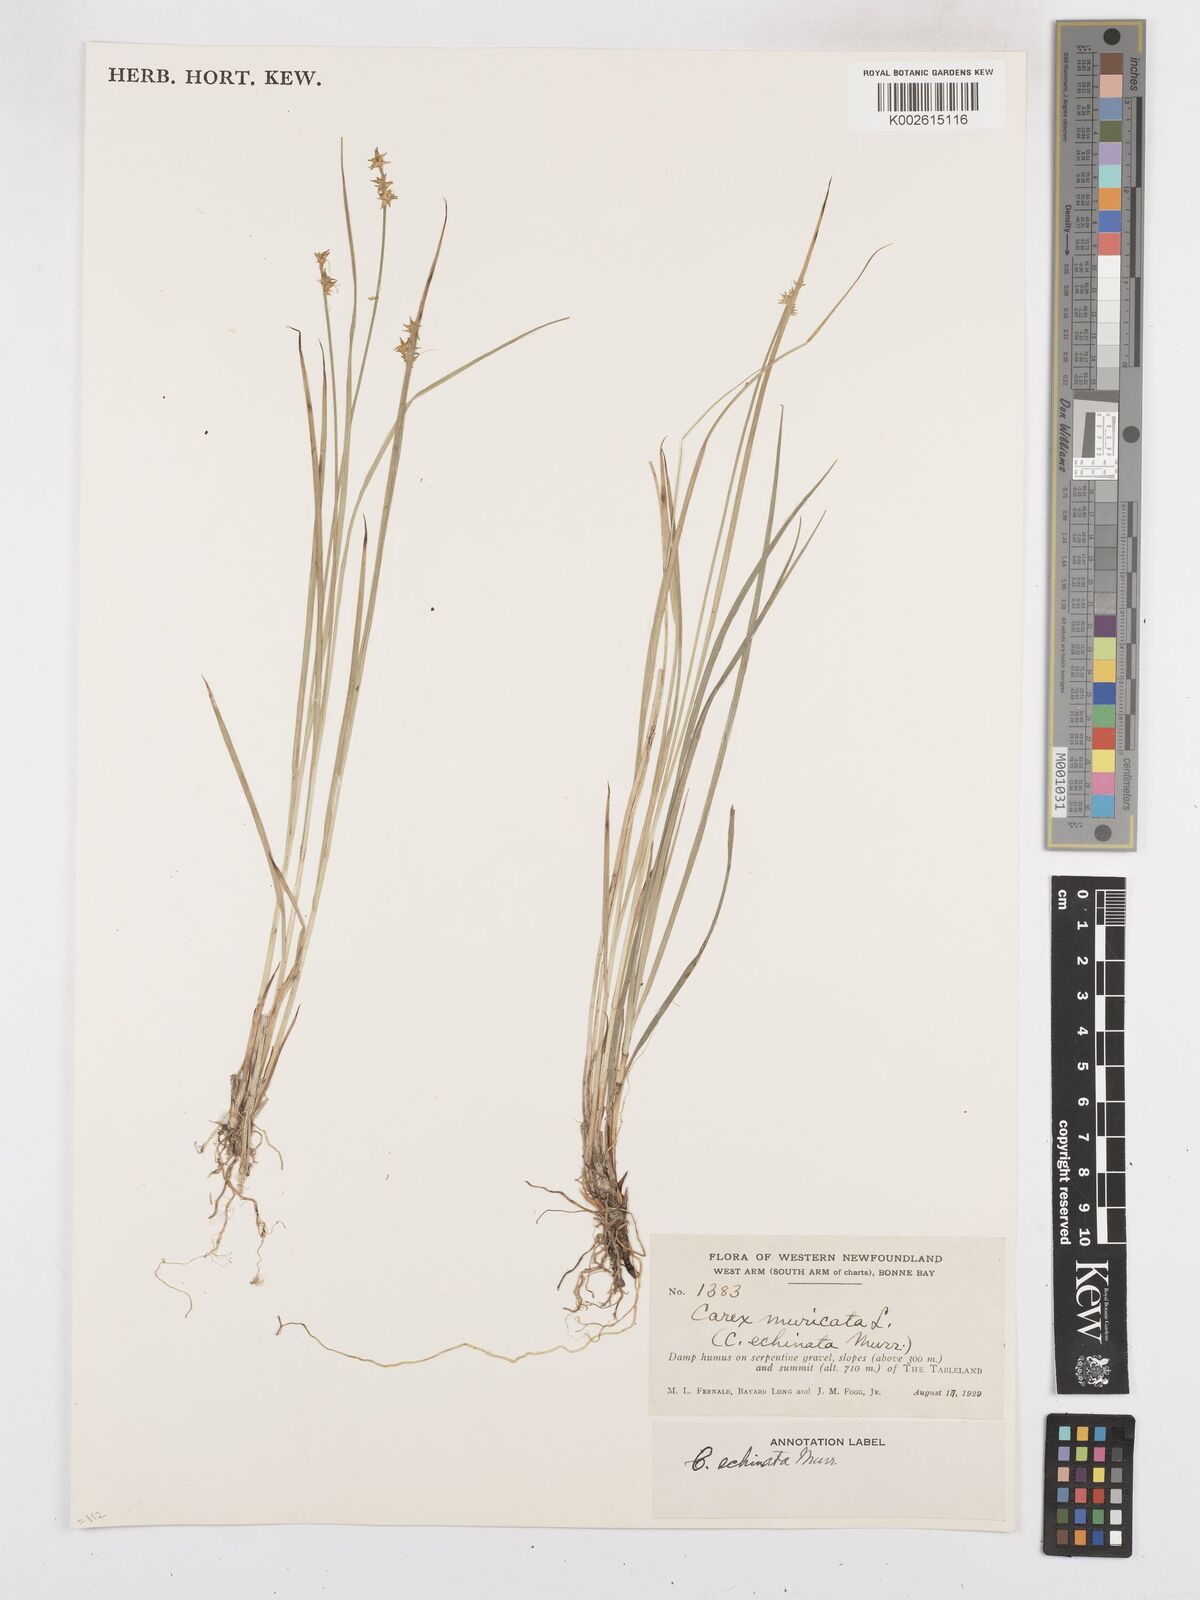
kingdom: Plantae
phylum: Tracheophyta
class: Liliopsida
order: Poales
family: Cyperaceae
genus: Carex
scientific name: Carex echinata
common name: Star sedge
